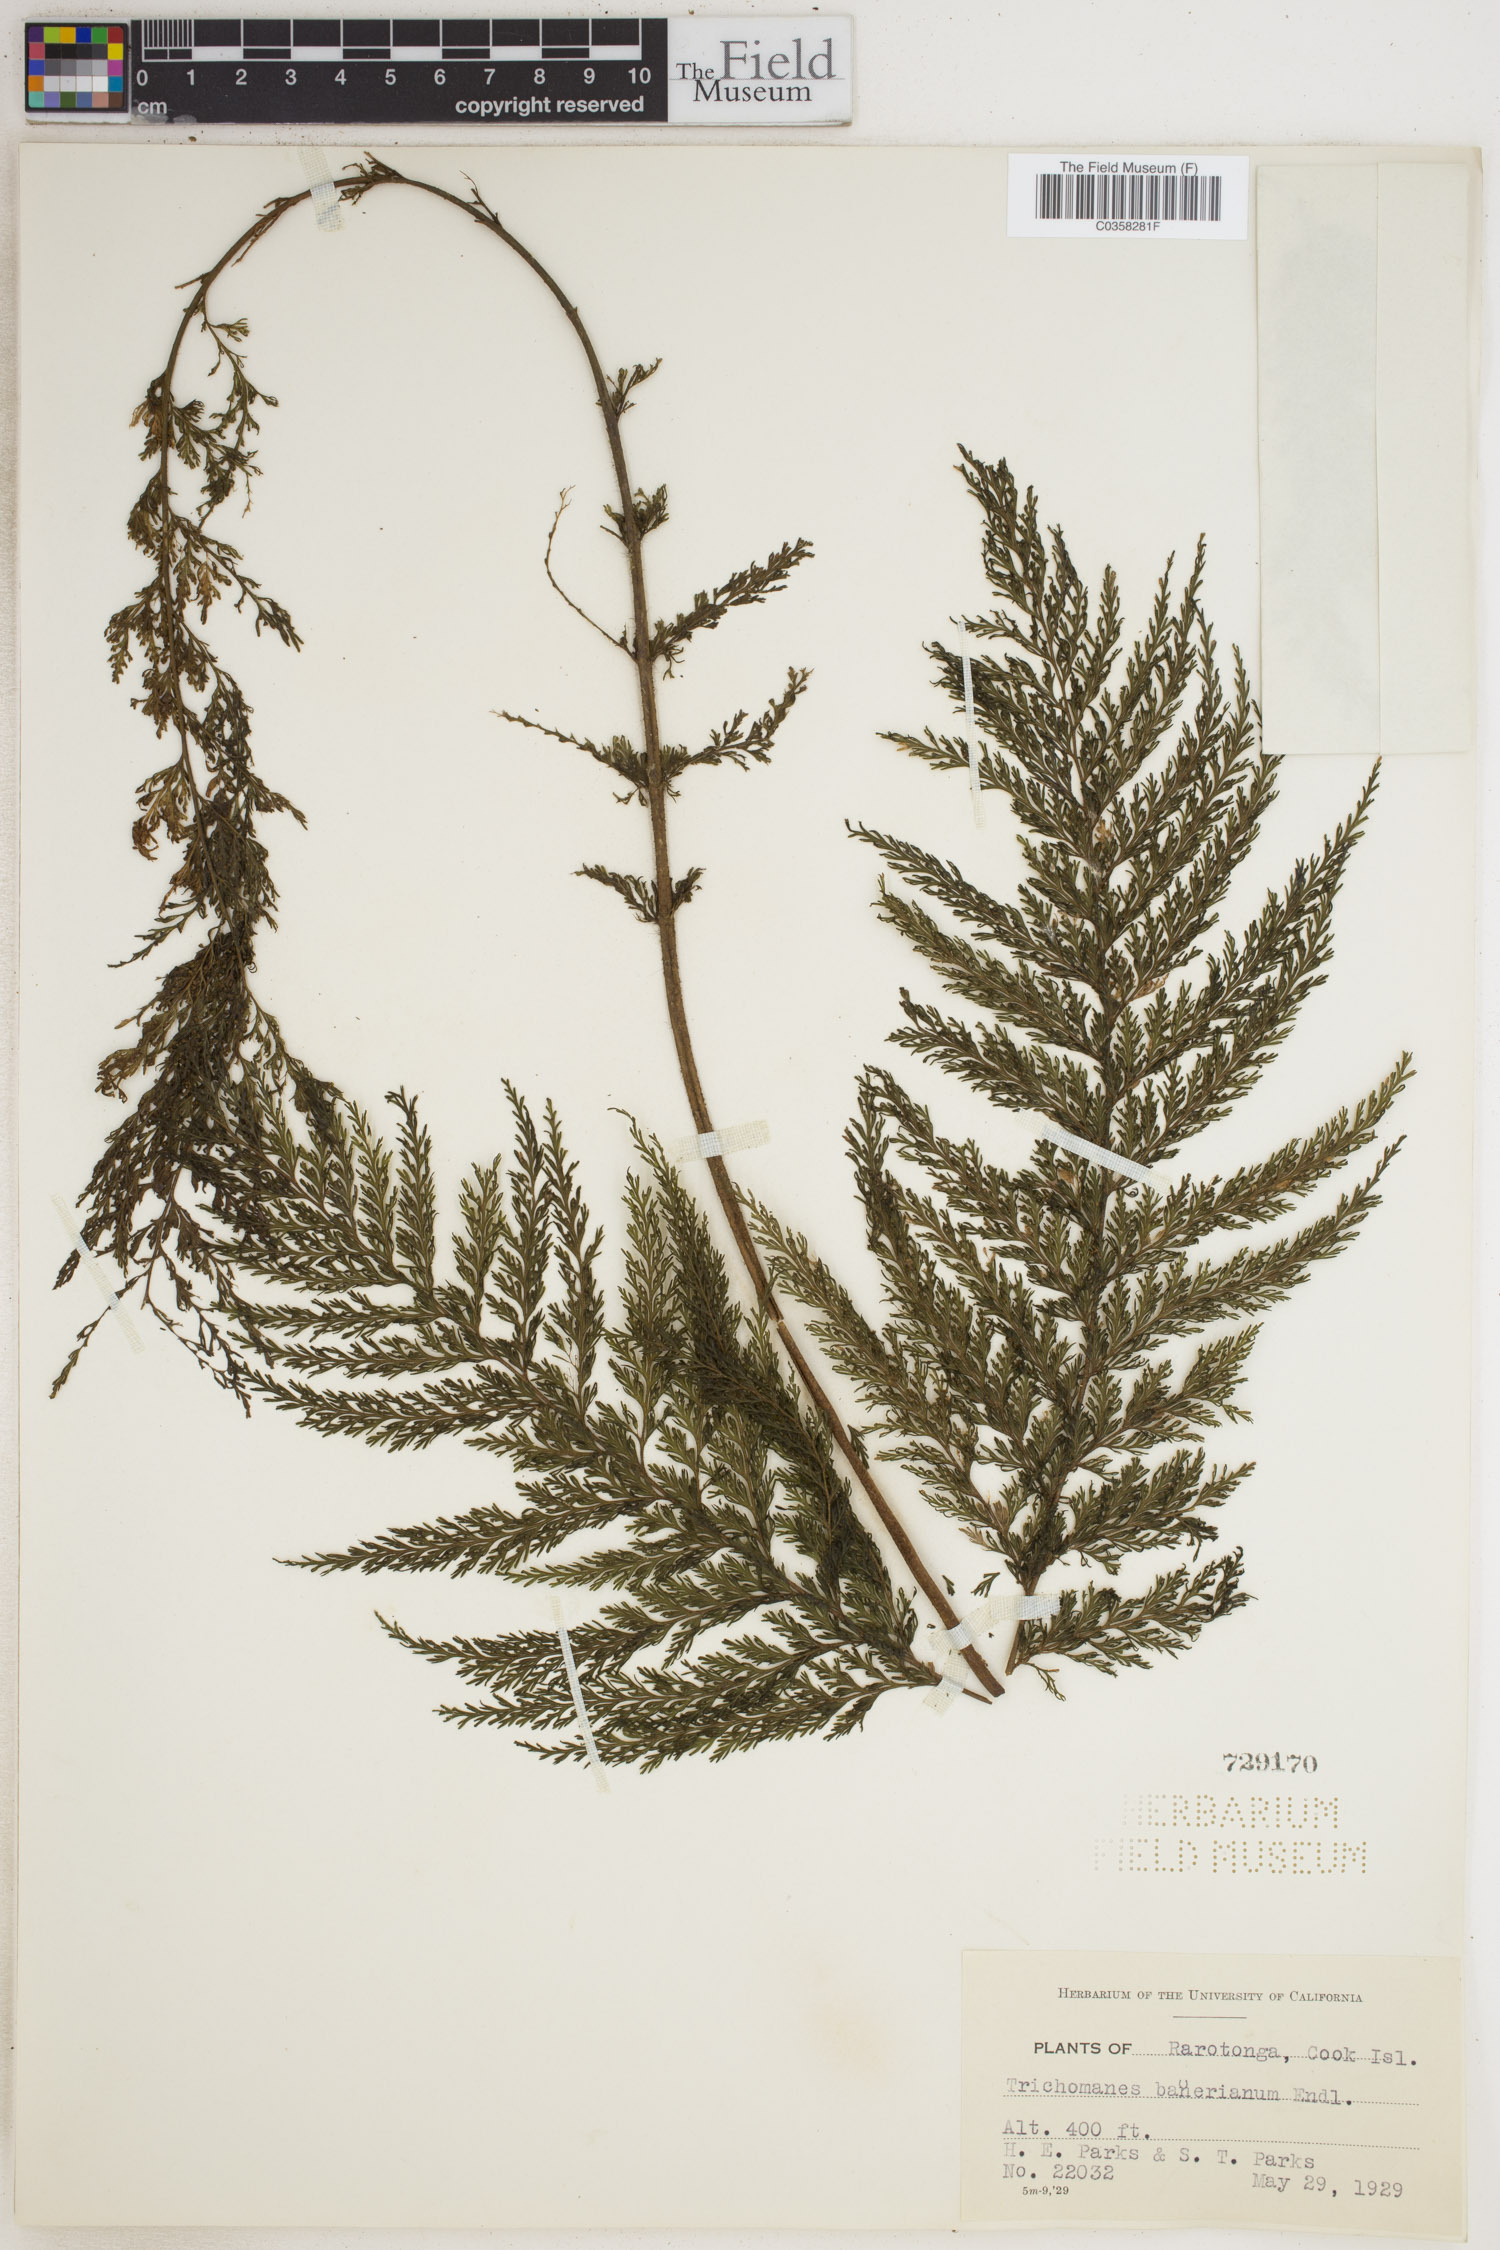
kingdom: Plantae
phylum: Tracheophyta
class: Polypodiopsida
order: Hymenophyllales
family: Hymenophyllaceae
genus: Callistopteris
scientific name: Callistopteris baueriana
